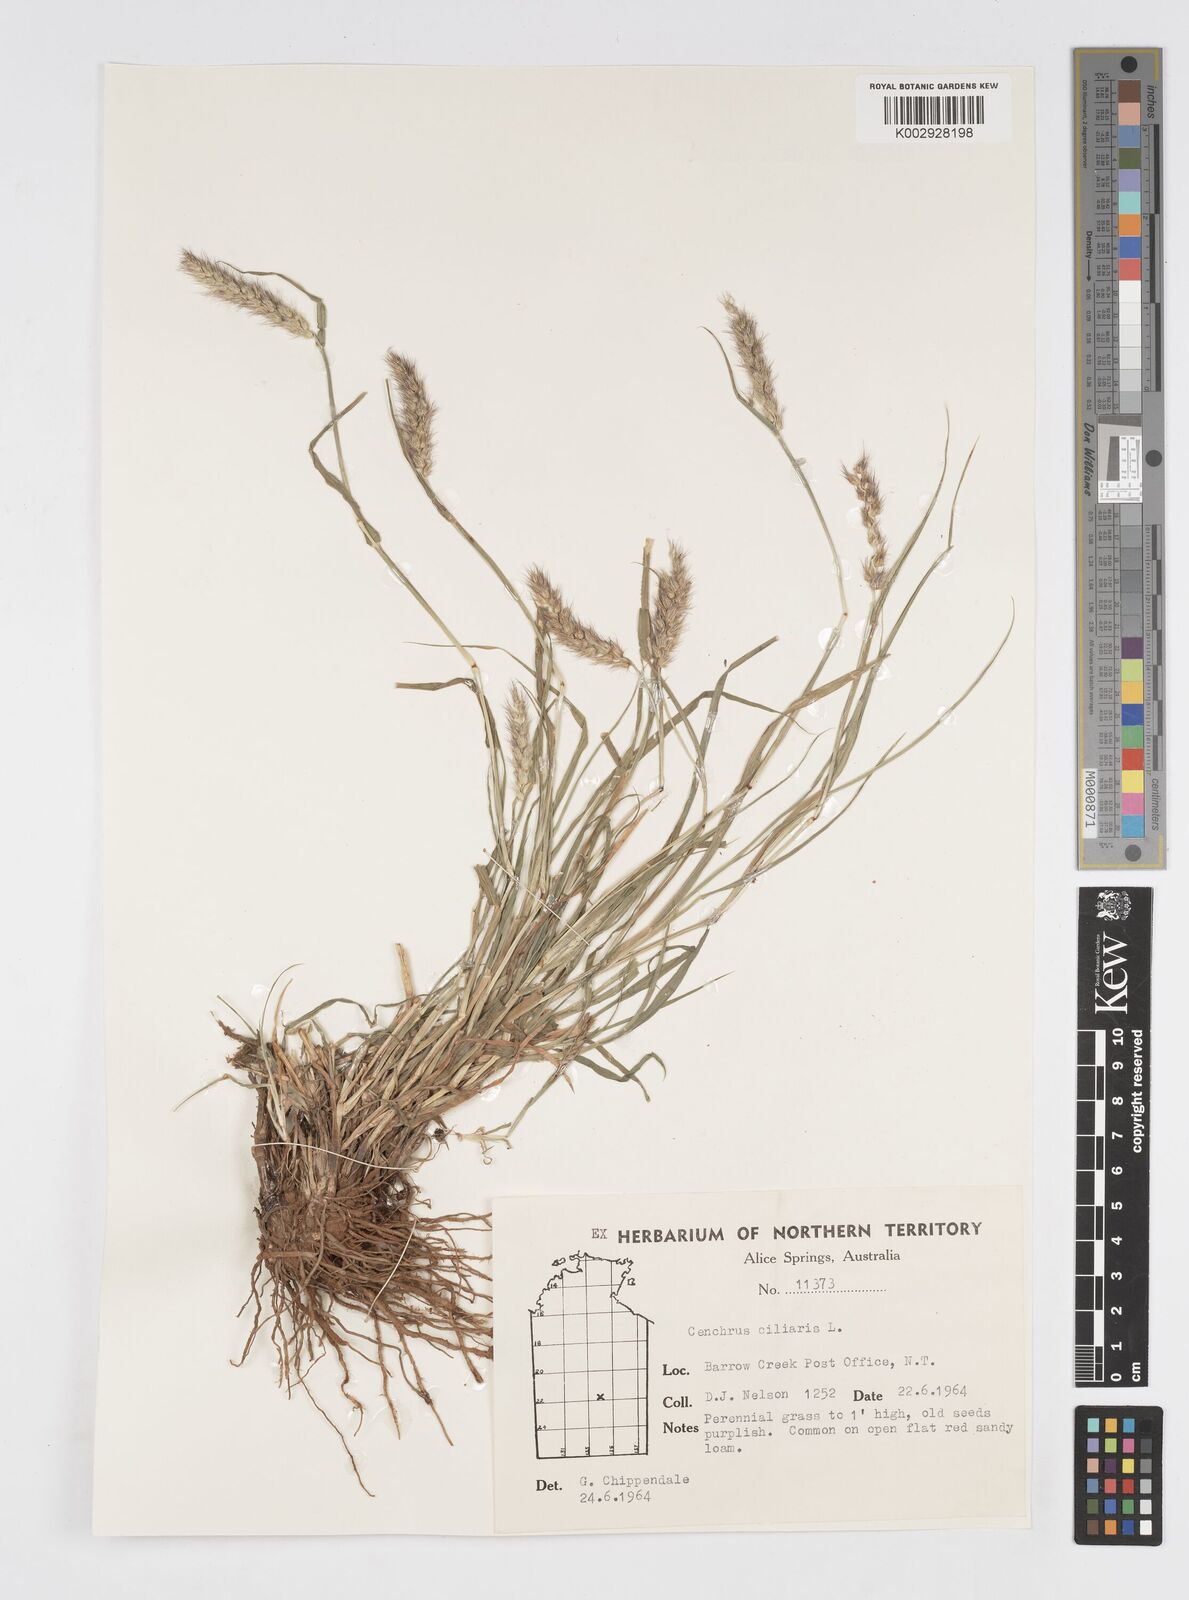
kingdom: Plantae
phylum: Tracheophyta
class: Liliopsida
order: Poales
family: Poaceae
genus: Cenchrus
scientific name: Cenchrus pennisetiformis
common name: Cloncurry
